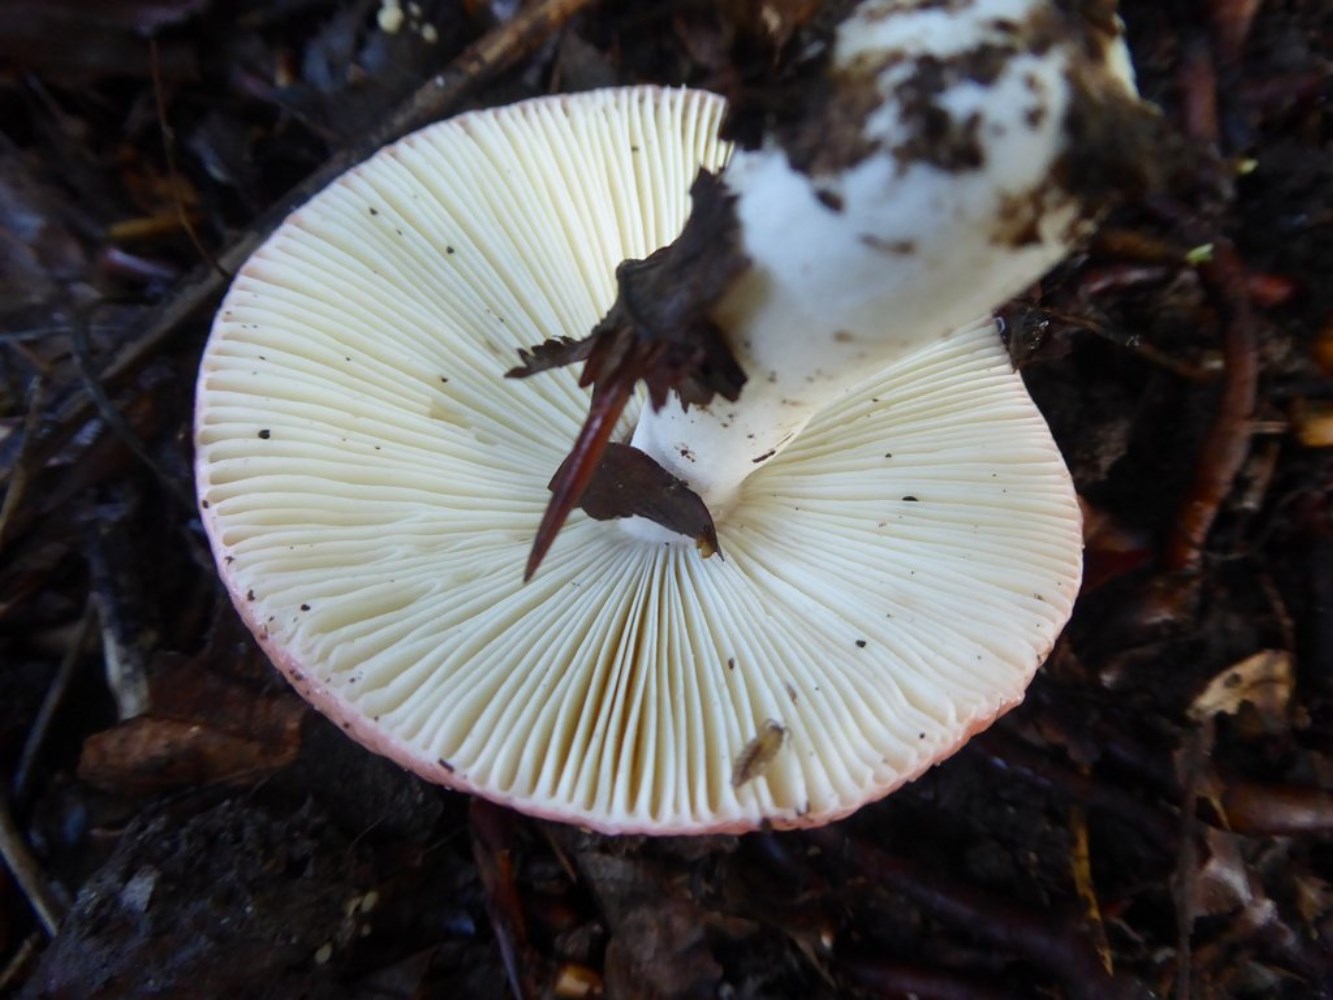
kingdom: Fungi
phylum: Basidiomycota
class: Agaricomycetes
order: Russulales
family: Russulaceae
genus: Russula
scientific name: Russula aurora
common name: rosa skørhat
